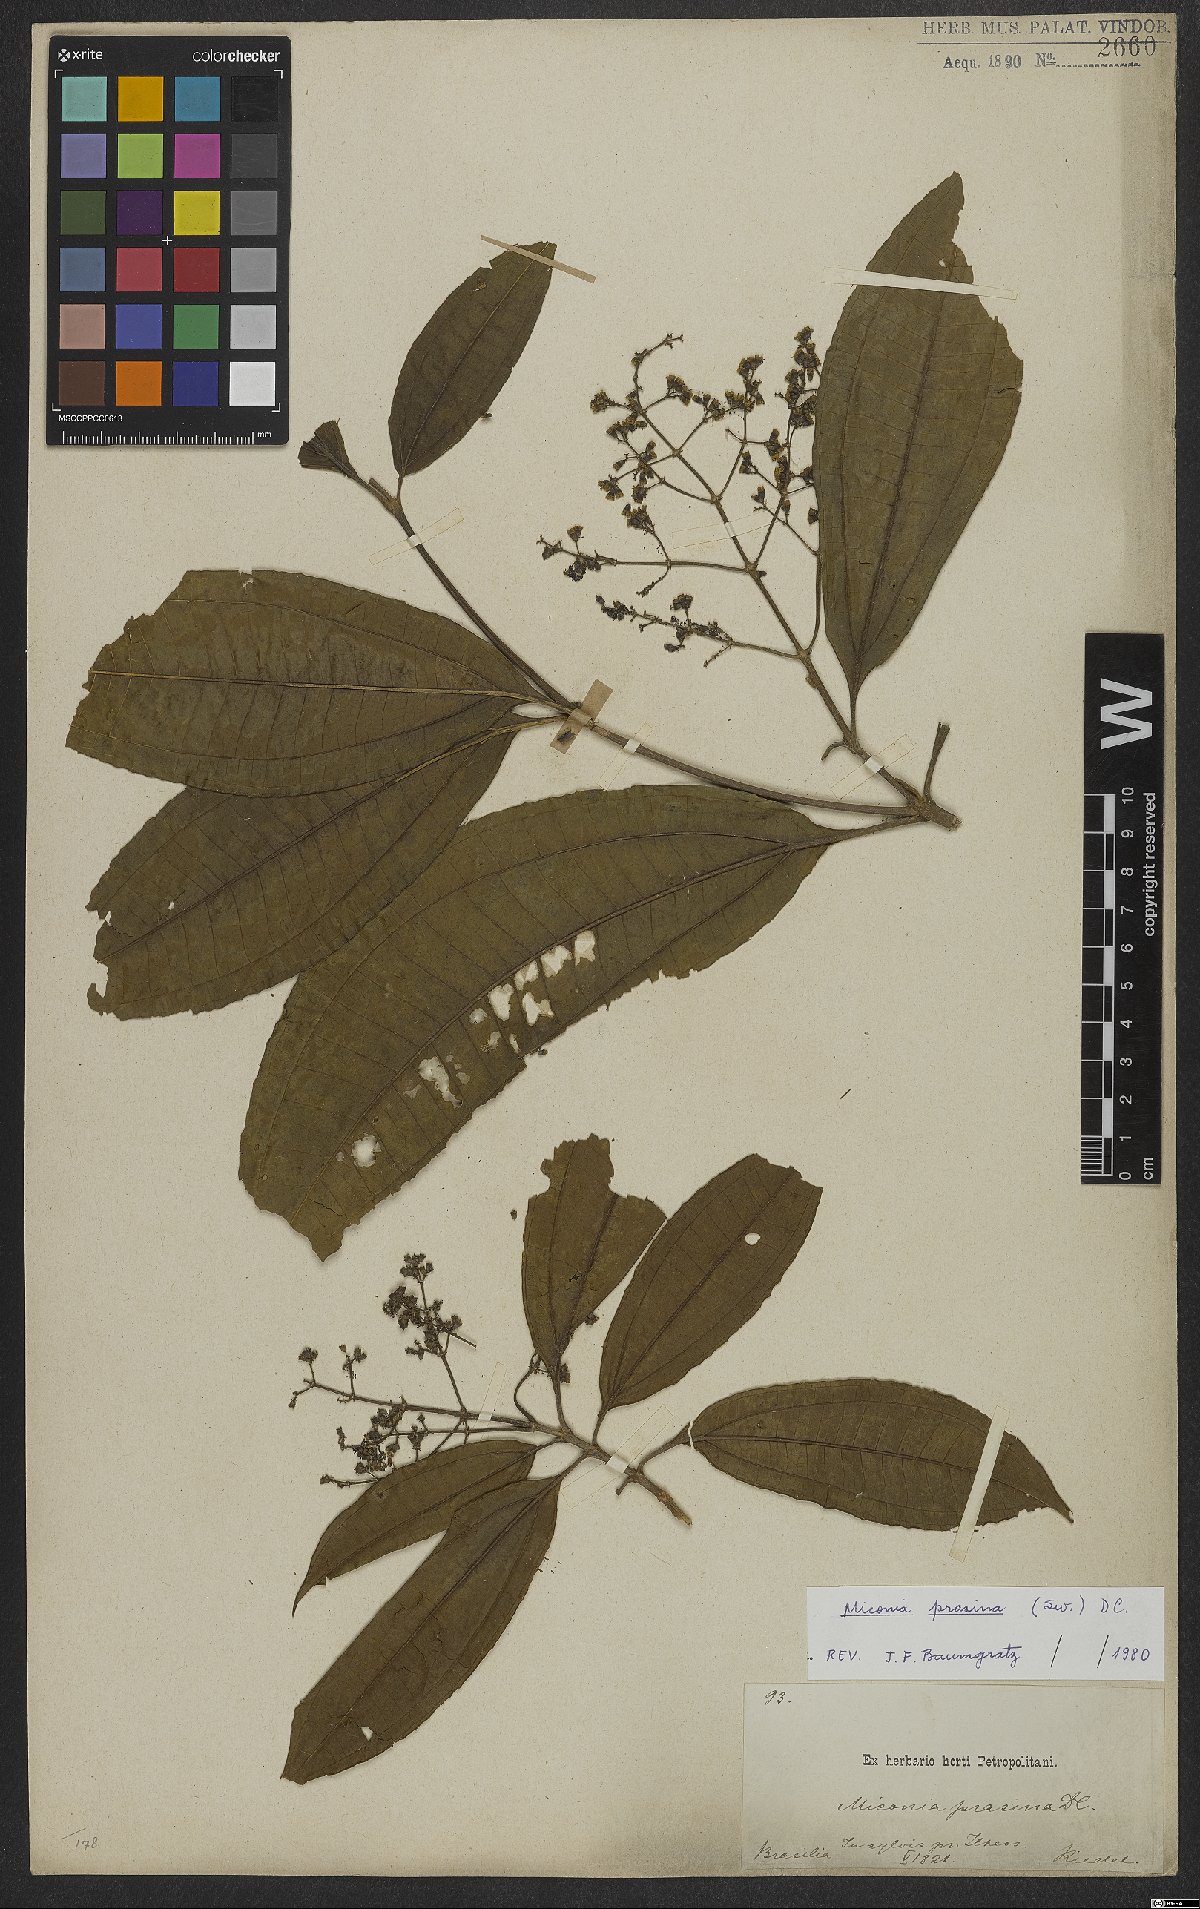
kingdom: Plantae
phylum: Tracheophyta
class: Magnoliopsida
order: Myrtales
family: Melastomataceae
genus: Miconia
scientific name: Miconia prasina
